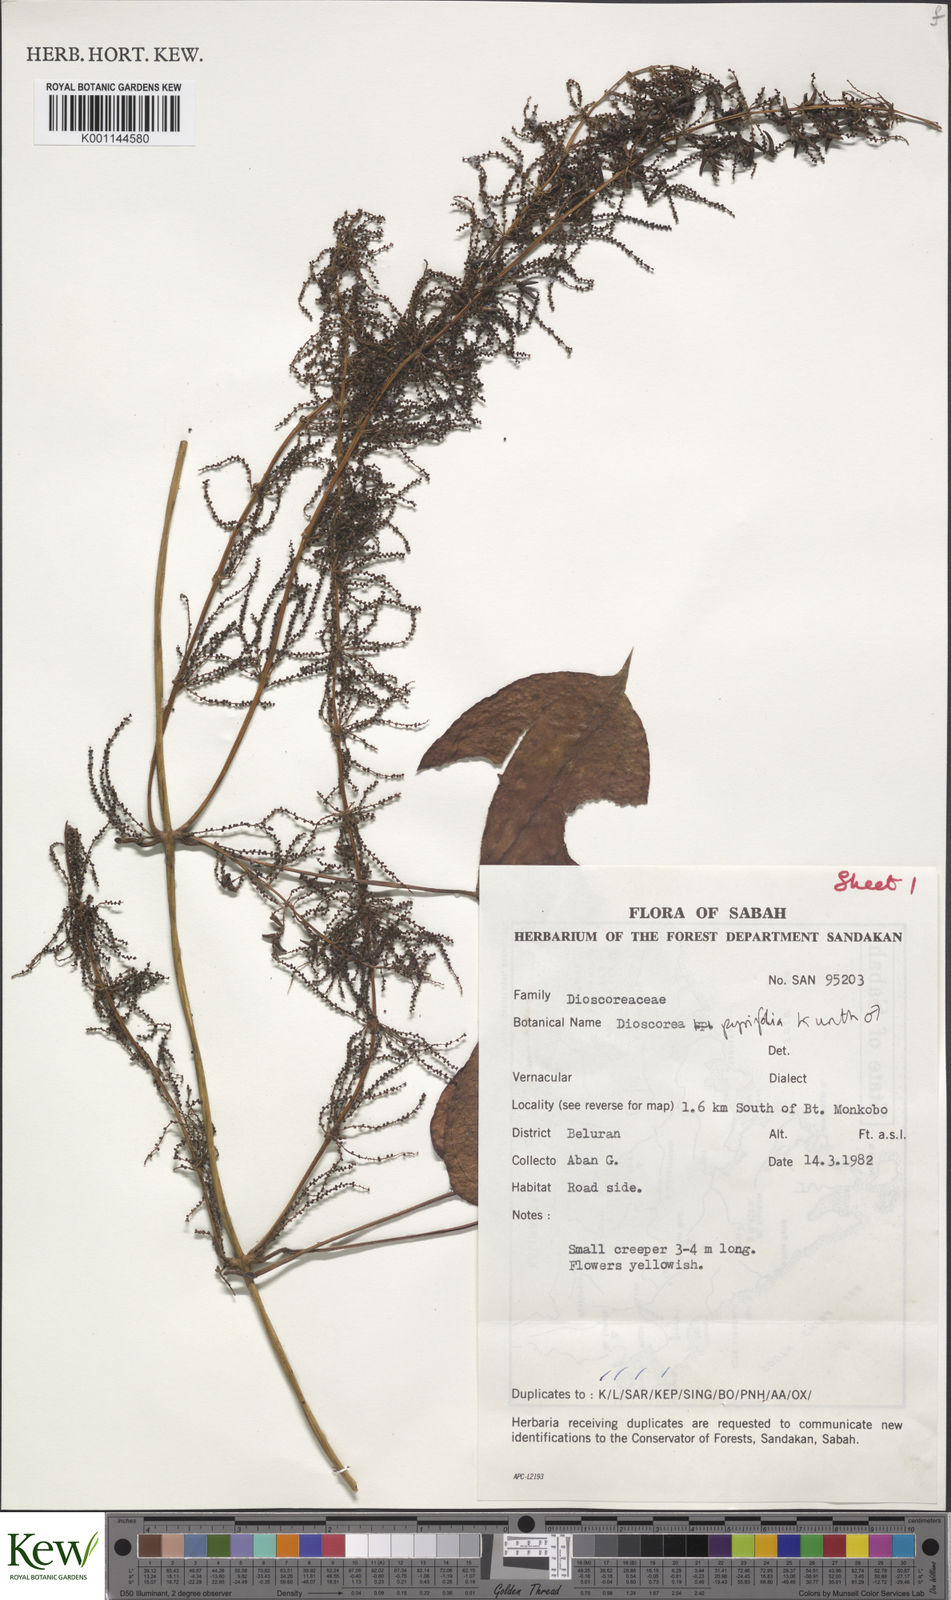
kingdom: Plantae
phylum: Tracheophyta
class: Liliopsida
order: Dioscoreales
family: Dioscoreaceae
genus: Dioscorea
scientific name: Dioscorea pyrifolia
